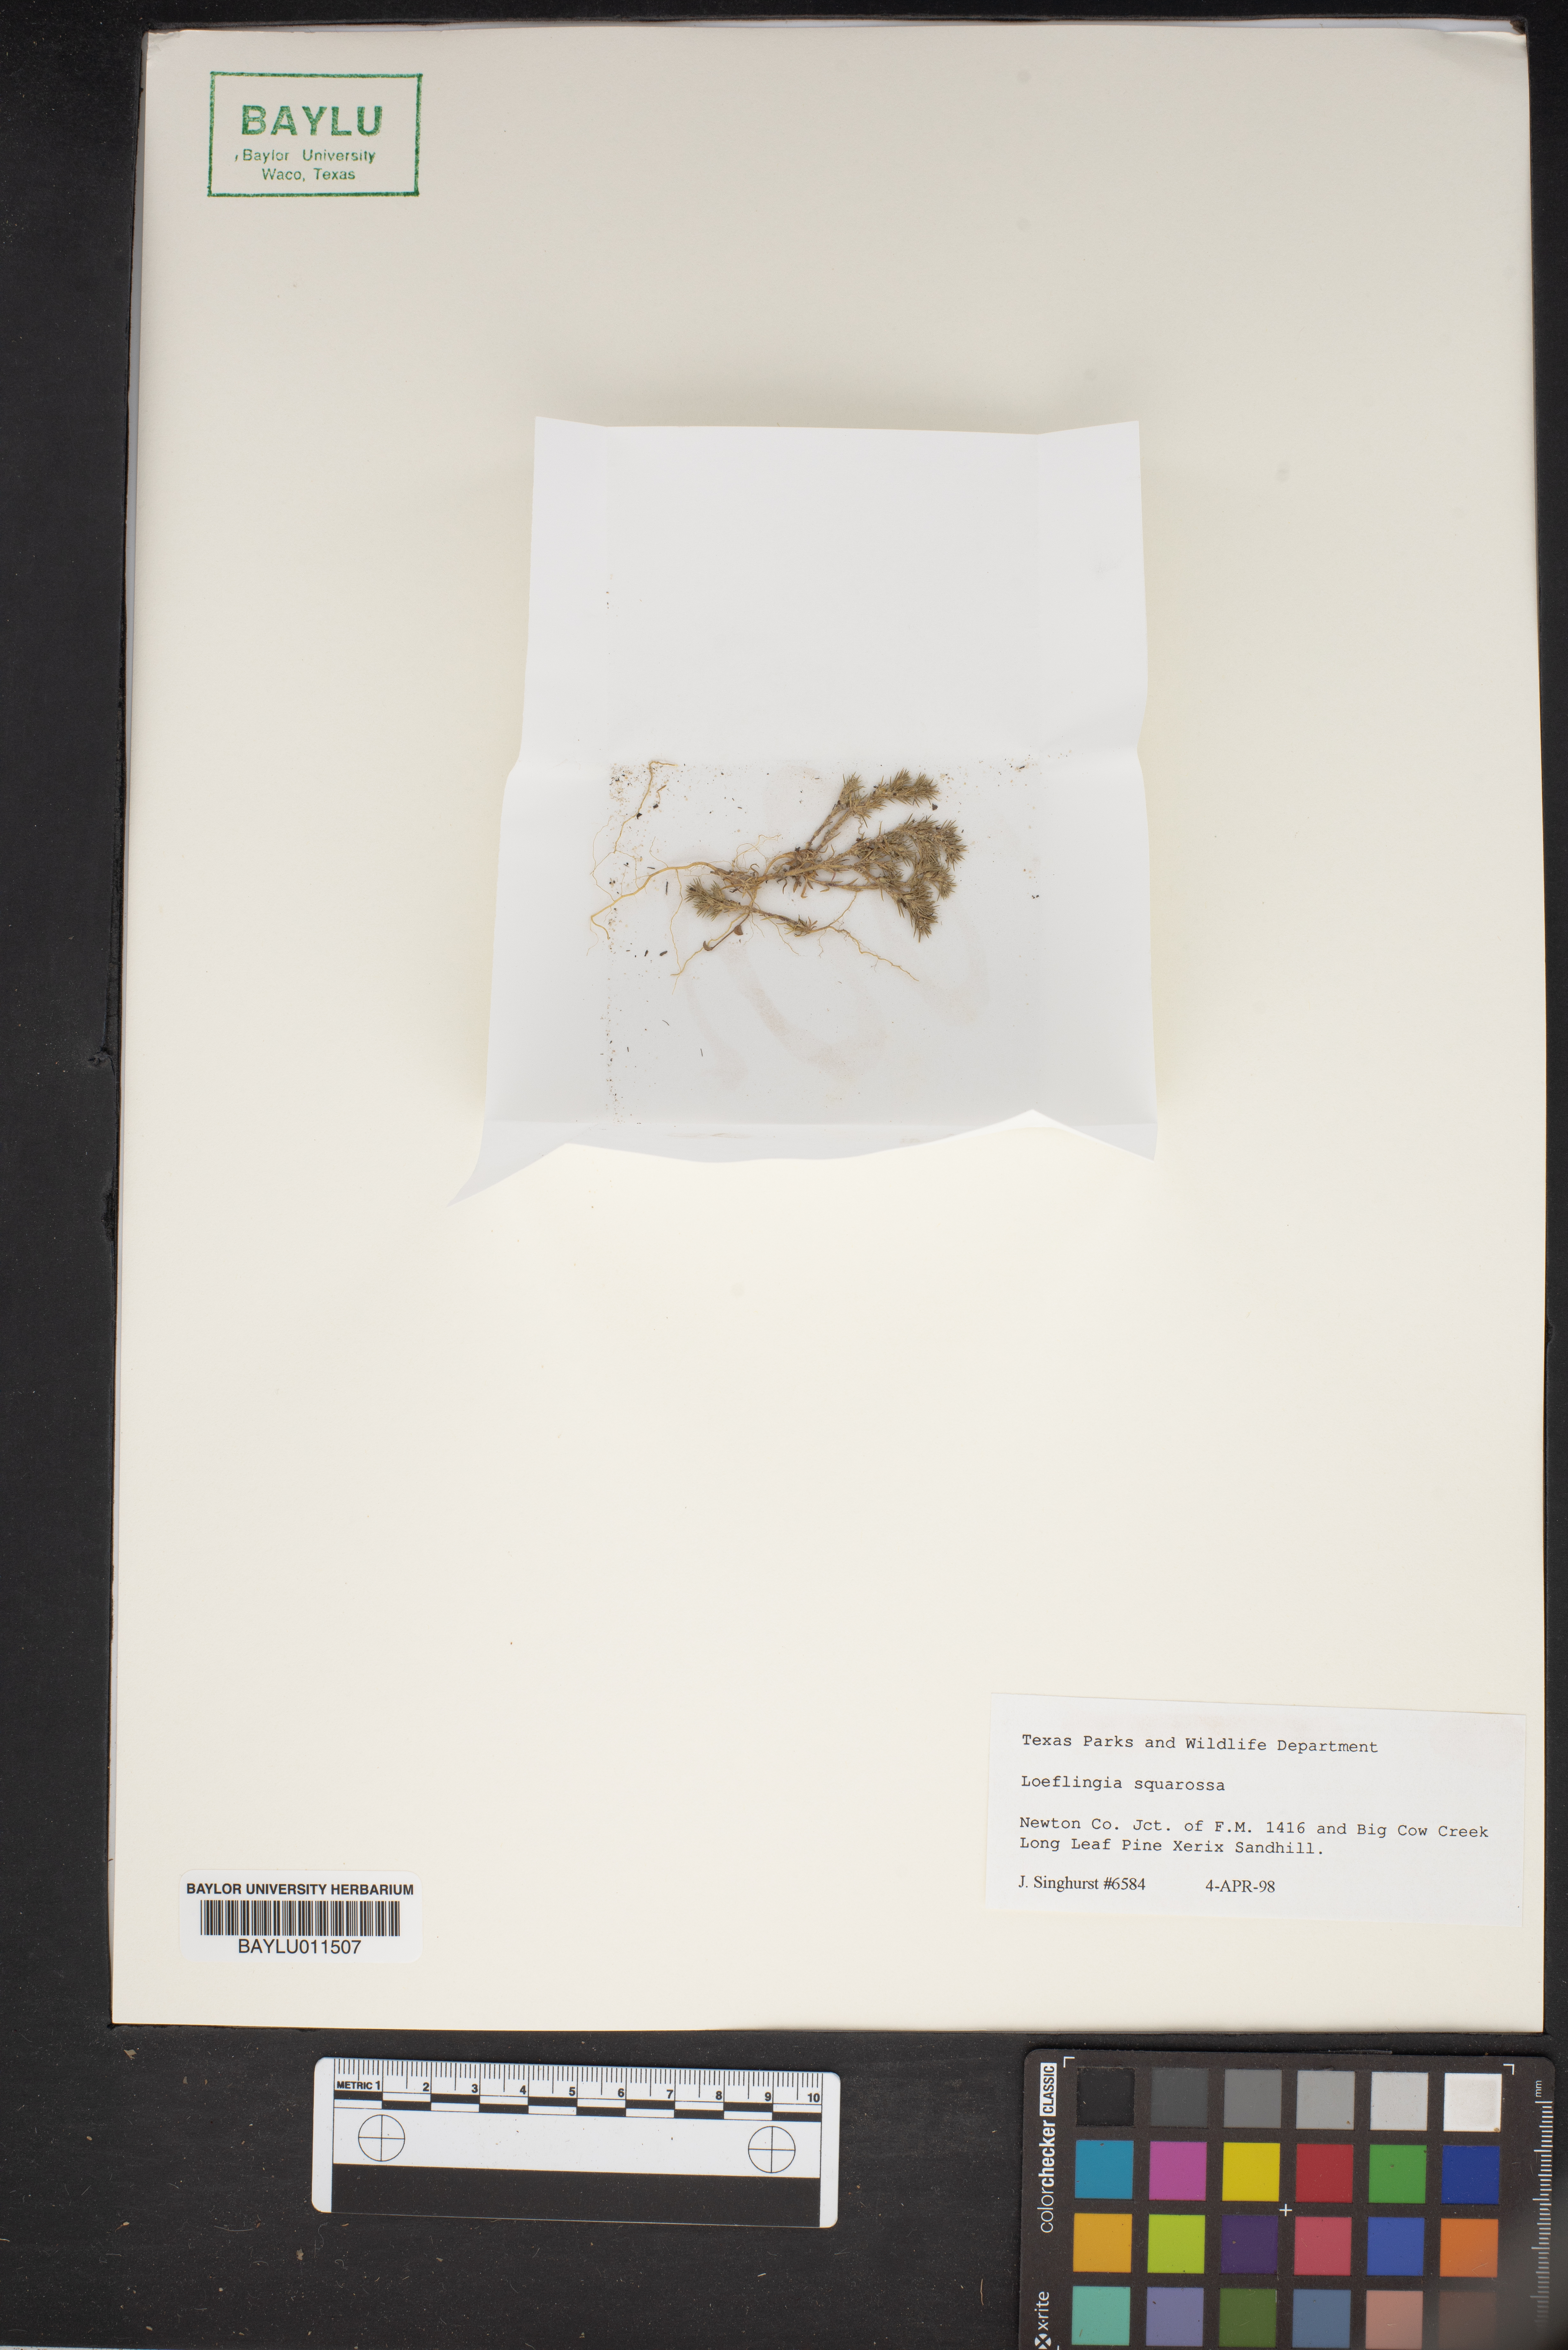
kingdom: Plantae
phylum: Tracheophyta
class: Magnoliopsida
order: Caryophyllales
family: Caryophyllaceae
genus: Loeflingia
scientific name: Loeflingia squarrosa
